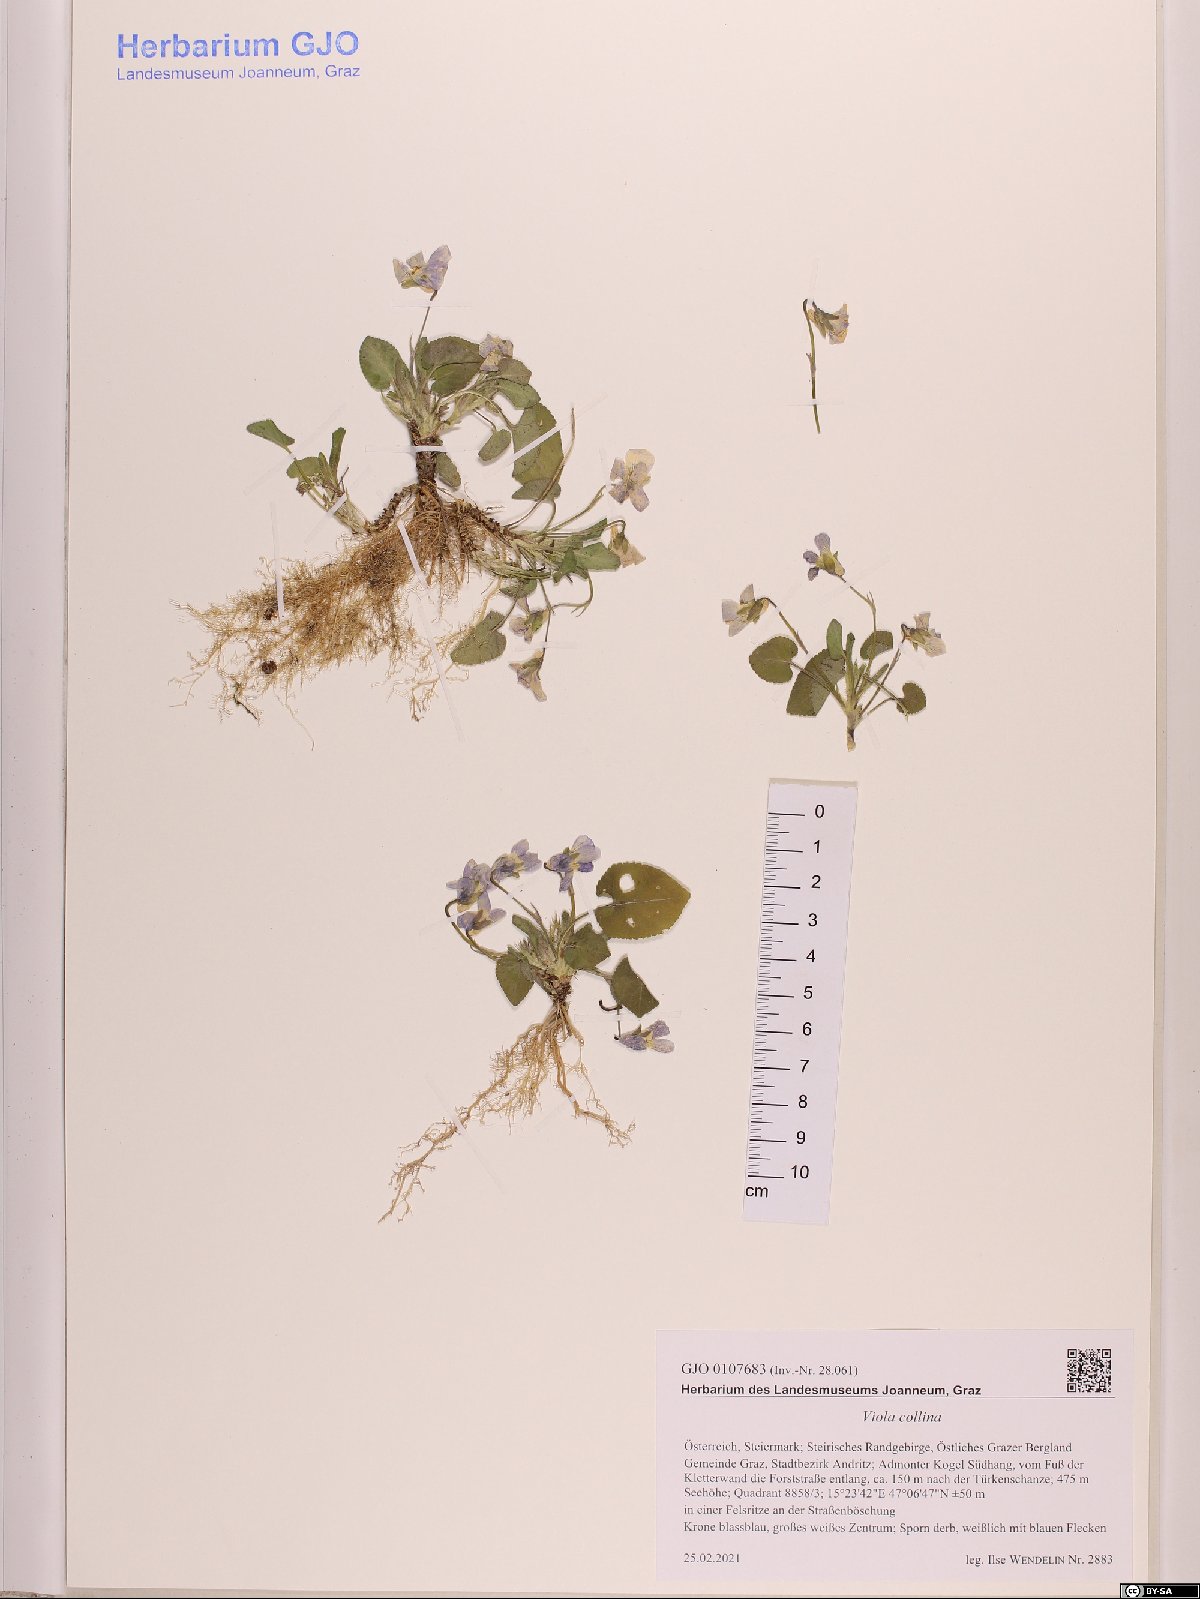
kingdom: Plantae
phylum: Tracheophyta
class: Magnoliopsida
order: Malpighiales
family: Violaceae
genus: Viola
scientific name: Viola collina
